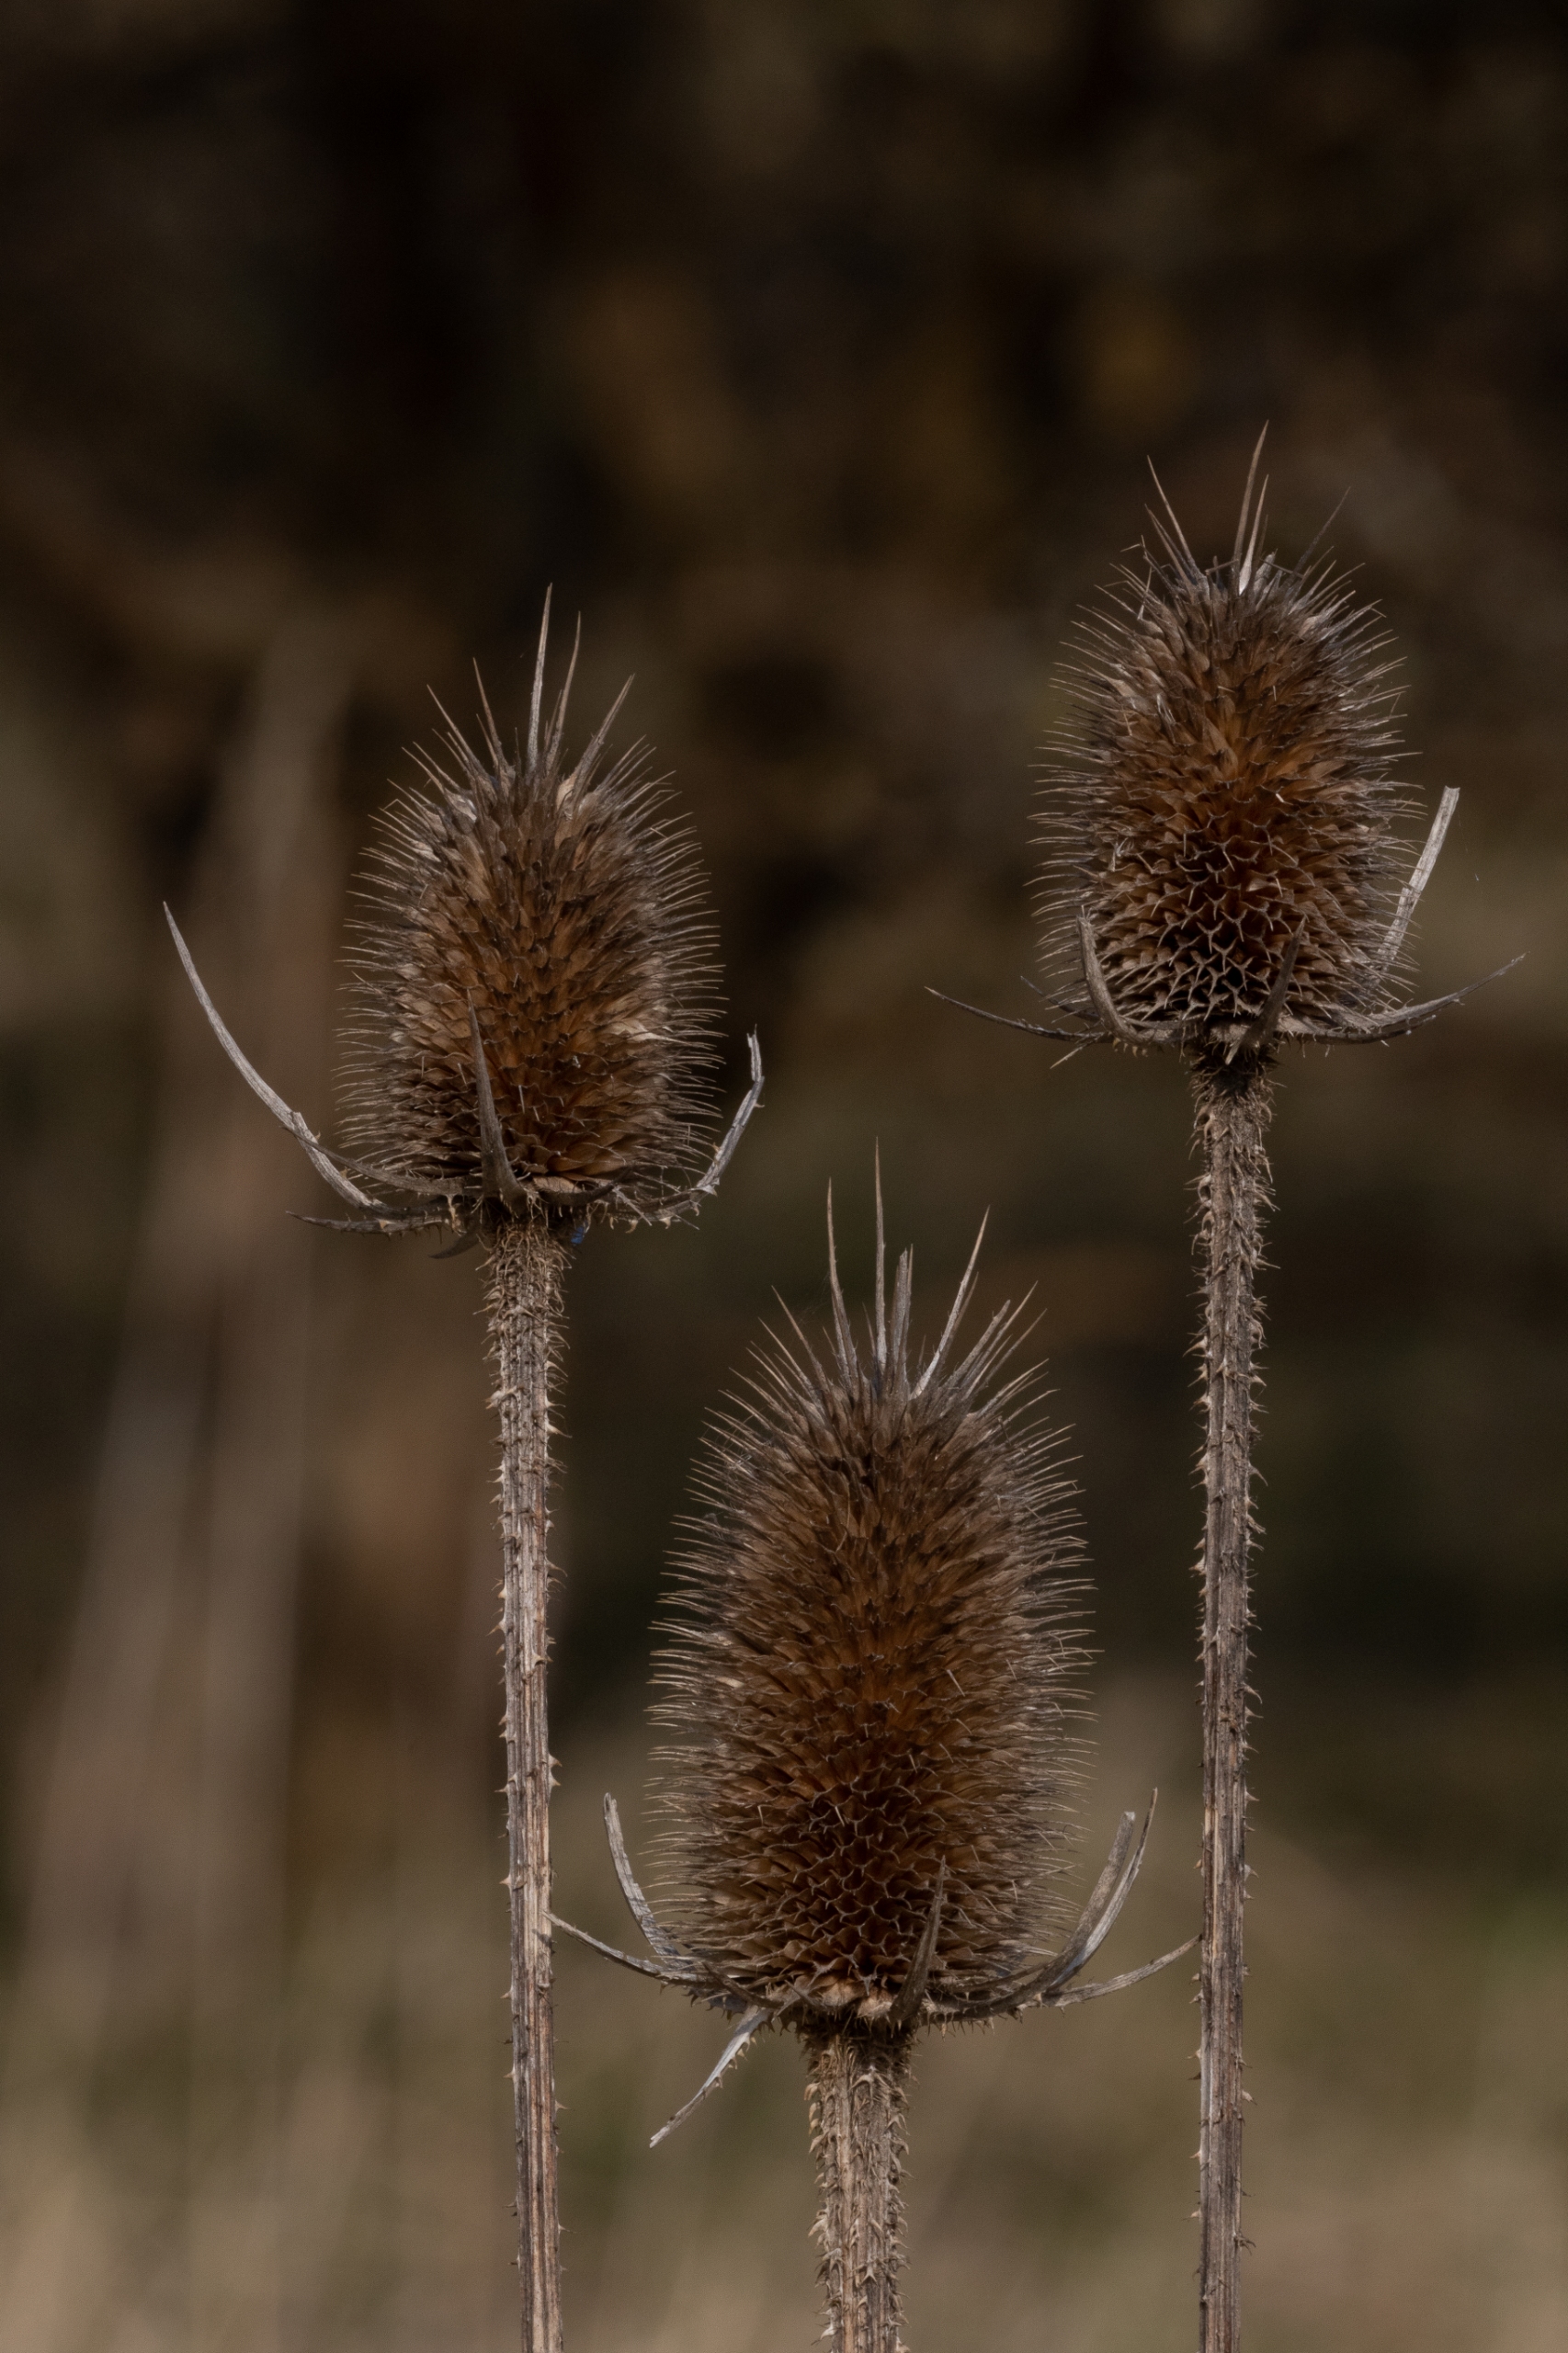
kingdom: Plantae
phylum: Tracheophyta
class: Magnoliopsida
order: Dipsacales
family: Caprifoliaceae
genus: Dipsacus
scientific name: Dipsacus fullonum
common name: Gærde-kartebolle
